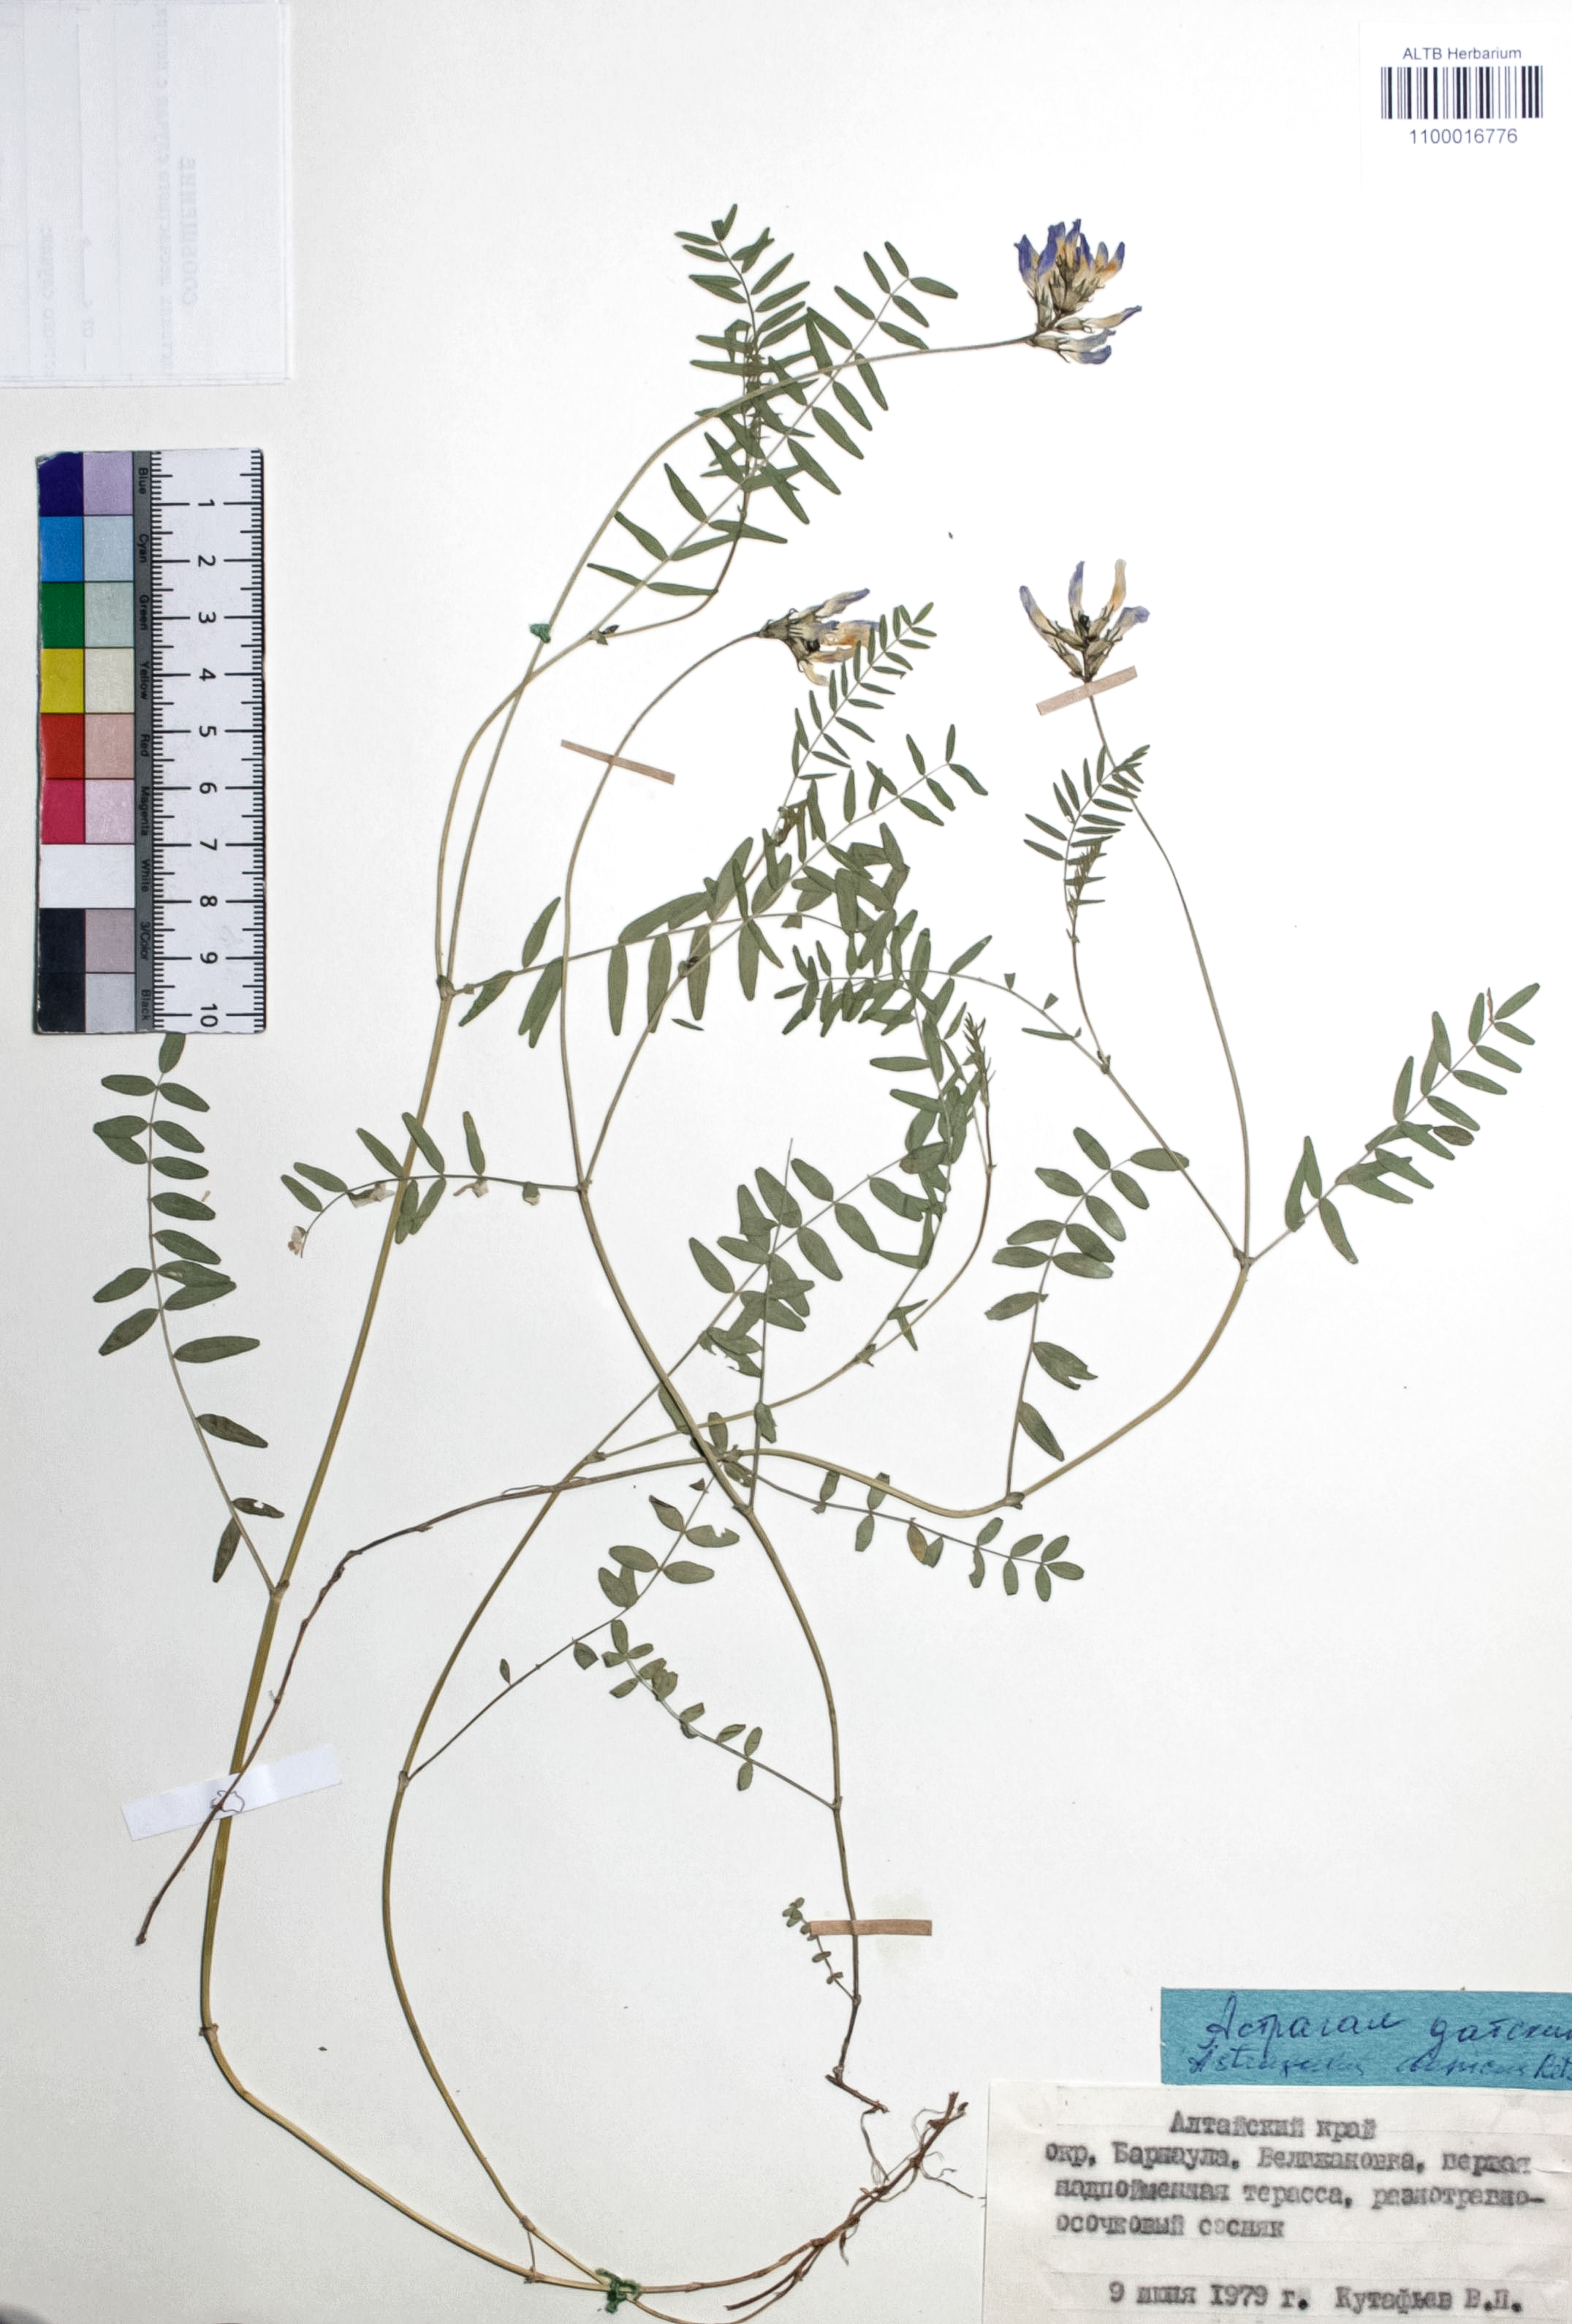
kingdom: Plantae
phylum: Tracheophyta
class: Magnoliopsida
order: Fabales
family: Fabaceae
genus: Astragalus
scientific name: Astragalus danicus
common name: Purple milk-vetch
